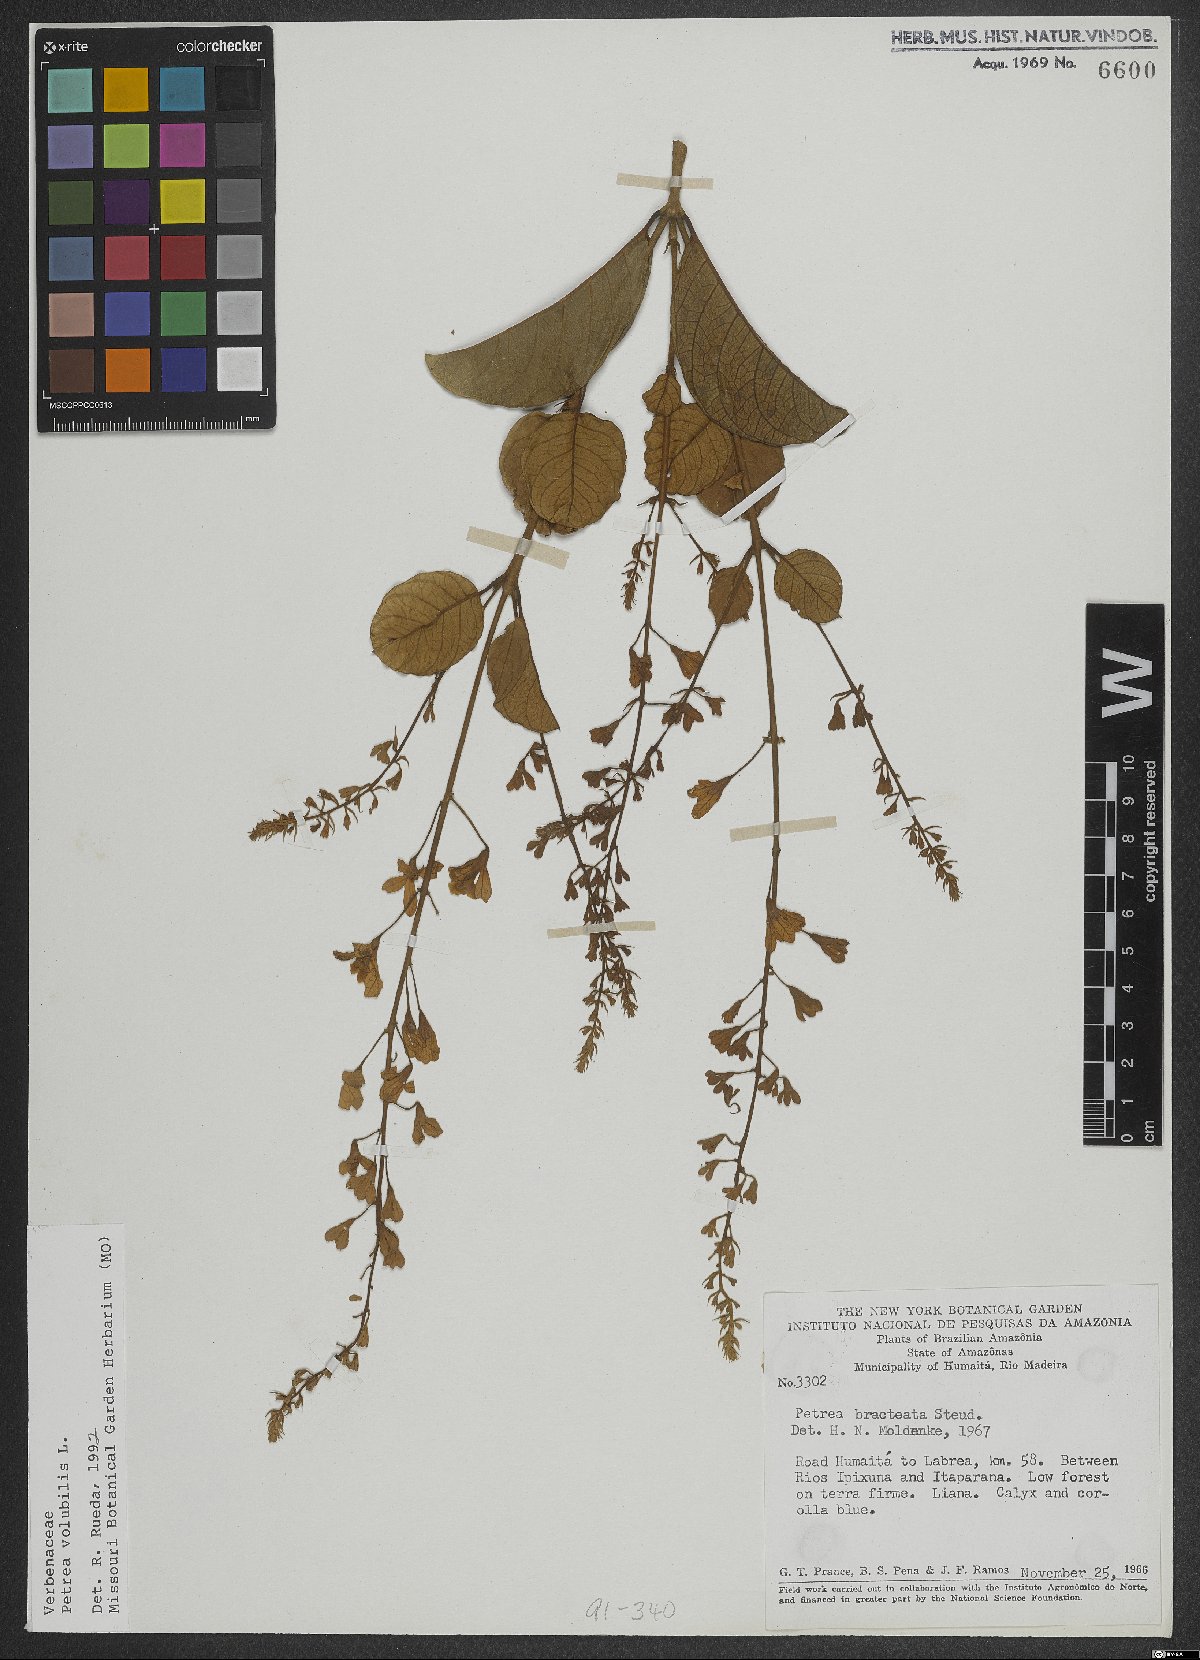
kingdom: Plantae
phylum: Tracheophyta
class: Magnoliopsida
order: Lamiales
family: Verbenaceae
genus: Petrea
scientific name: Petrea volubilis
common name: Queen's-wreath
